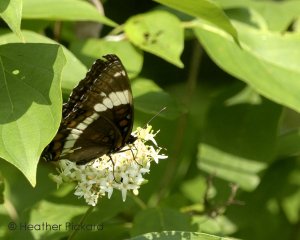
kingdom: Animalia
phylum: Arthropoda
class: Insecta
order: Lepidoptera
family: Nymphalidae
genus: Limenitis
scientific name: Limenitis arthemis
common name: Red-spotted Admiral
